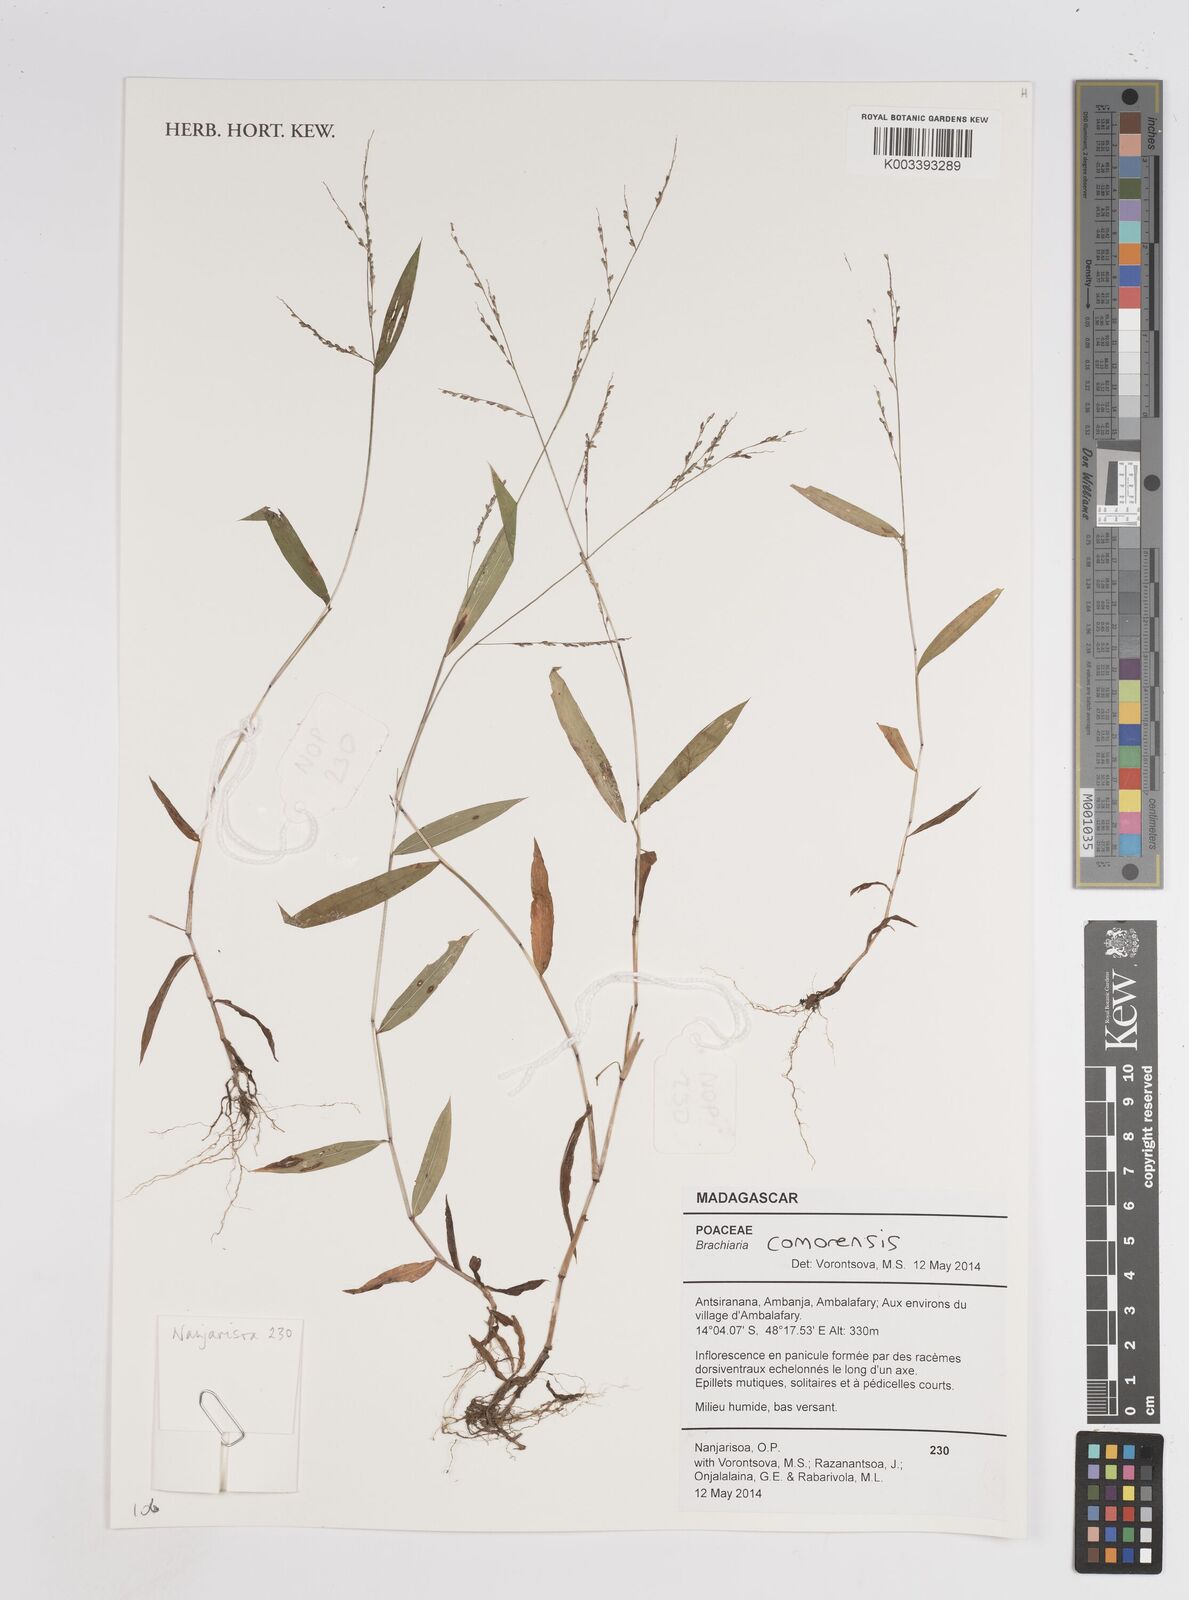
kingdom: Plantae
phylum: Tracheophyta
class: Liliopsida
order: Poales
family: Poaceae
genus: Panicum
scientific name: Panicum comorense
